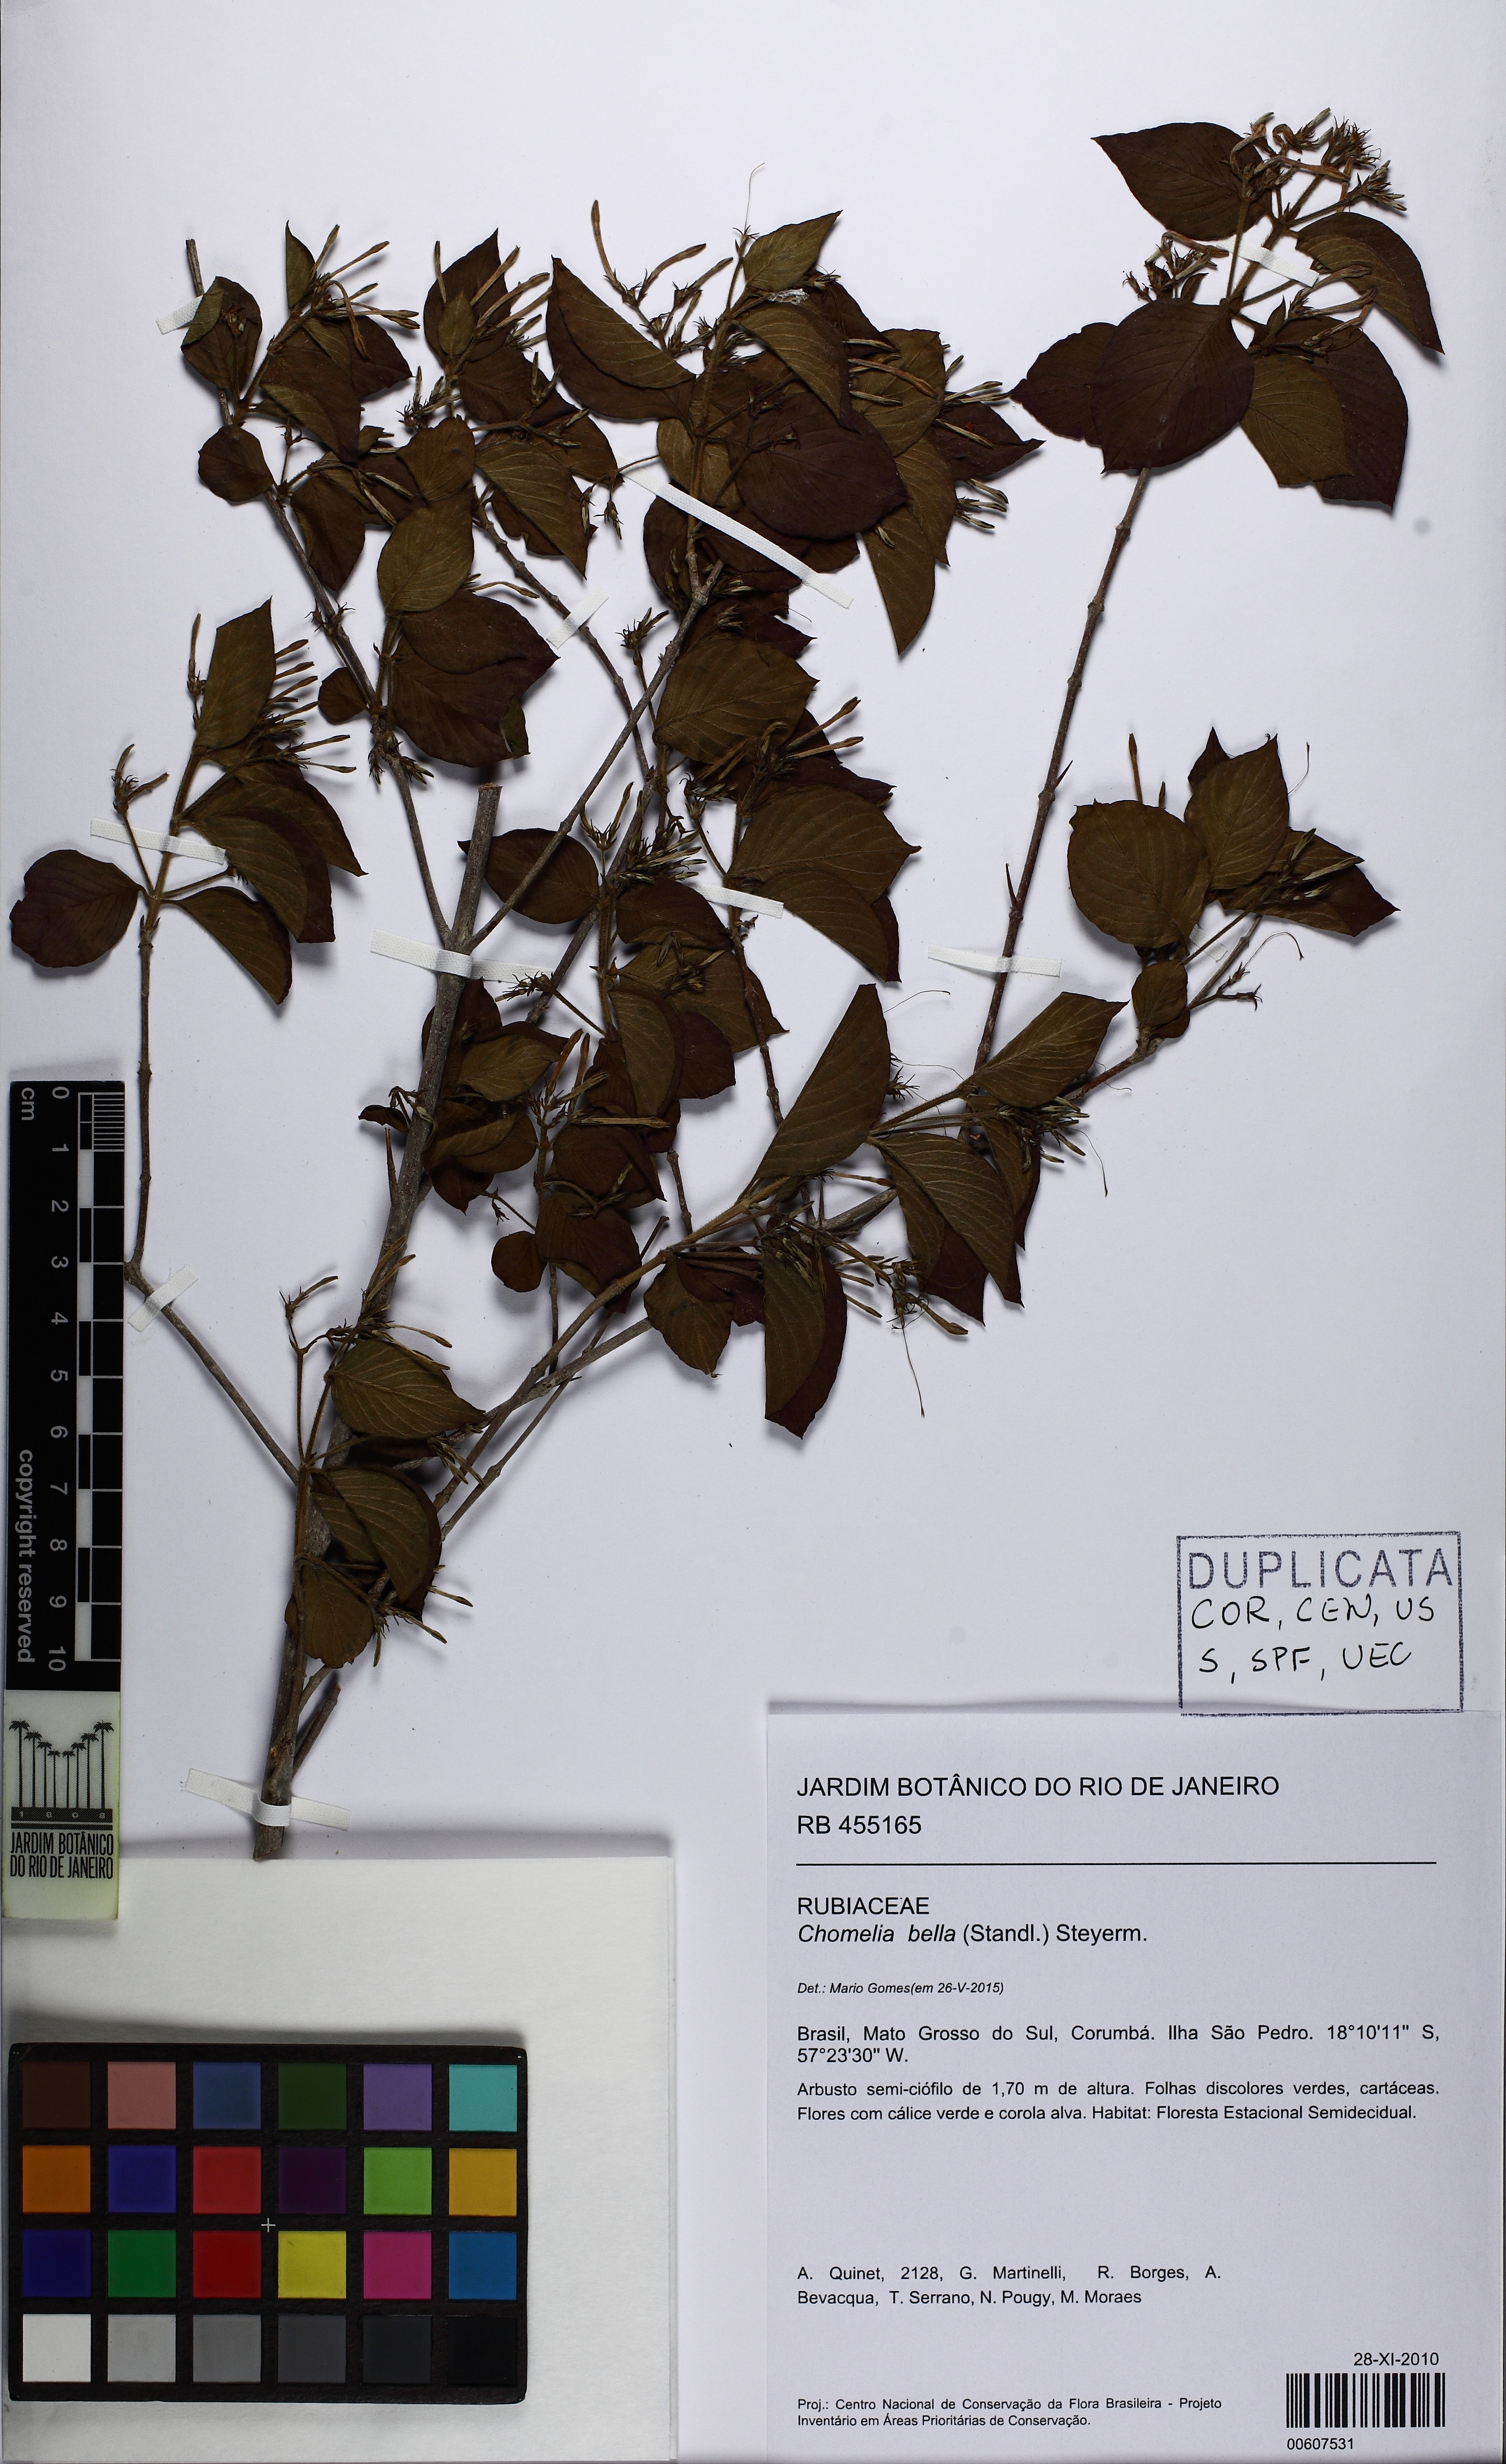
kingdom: Plantae
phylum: Tracheophyta
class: Magnoliopsida
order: Gentianales
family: Rubiaceae
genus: Chomelia
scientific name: Chomelia bella
